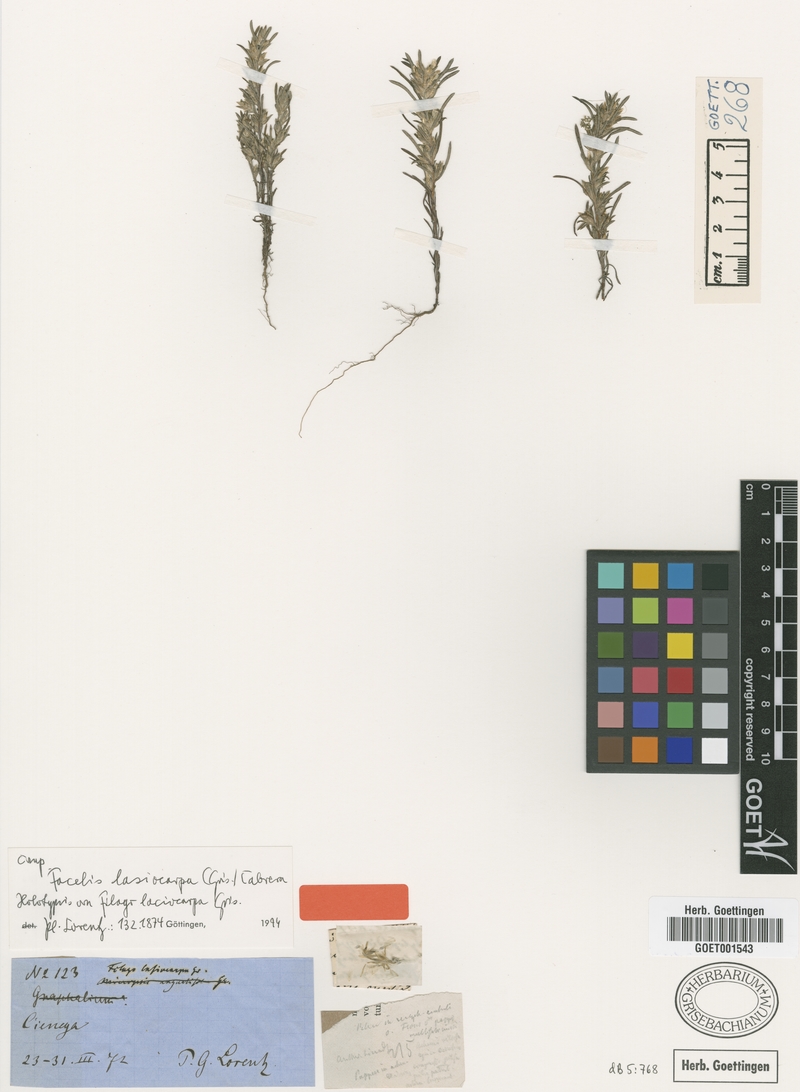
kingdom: Plantae
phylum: Tracheophyta
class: Magnoliopsida
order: Asterales
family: Asteraceae
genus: Facelis
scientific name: Facelis lasiocarpa
